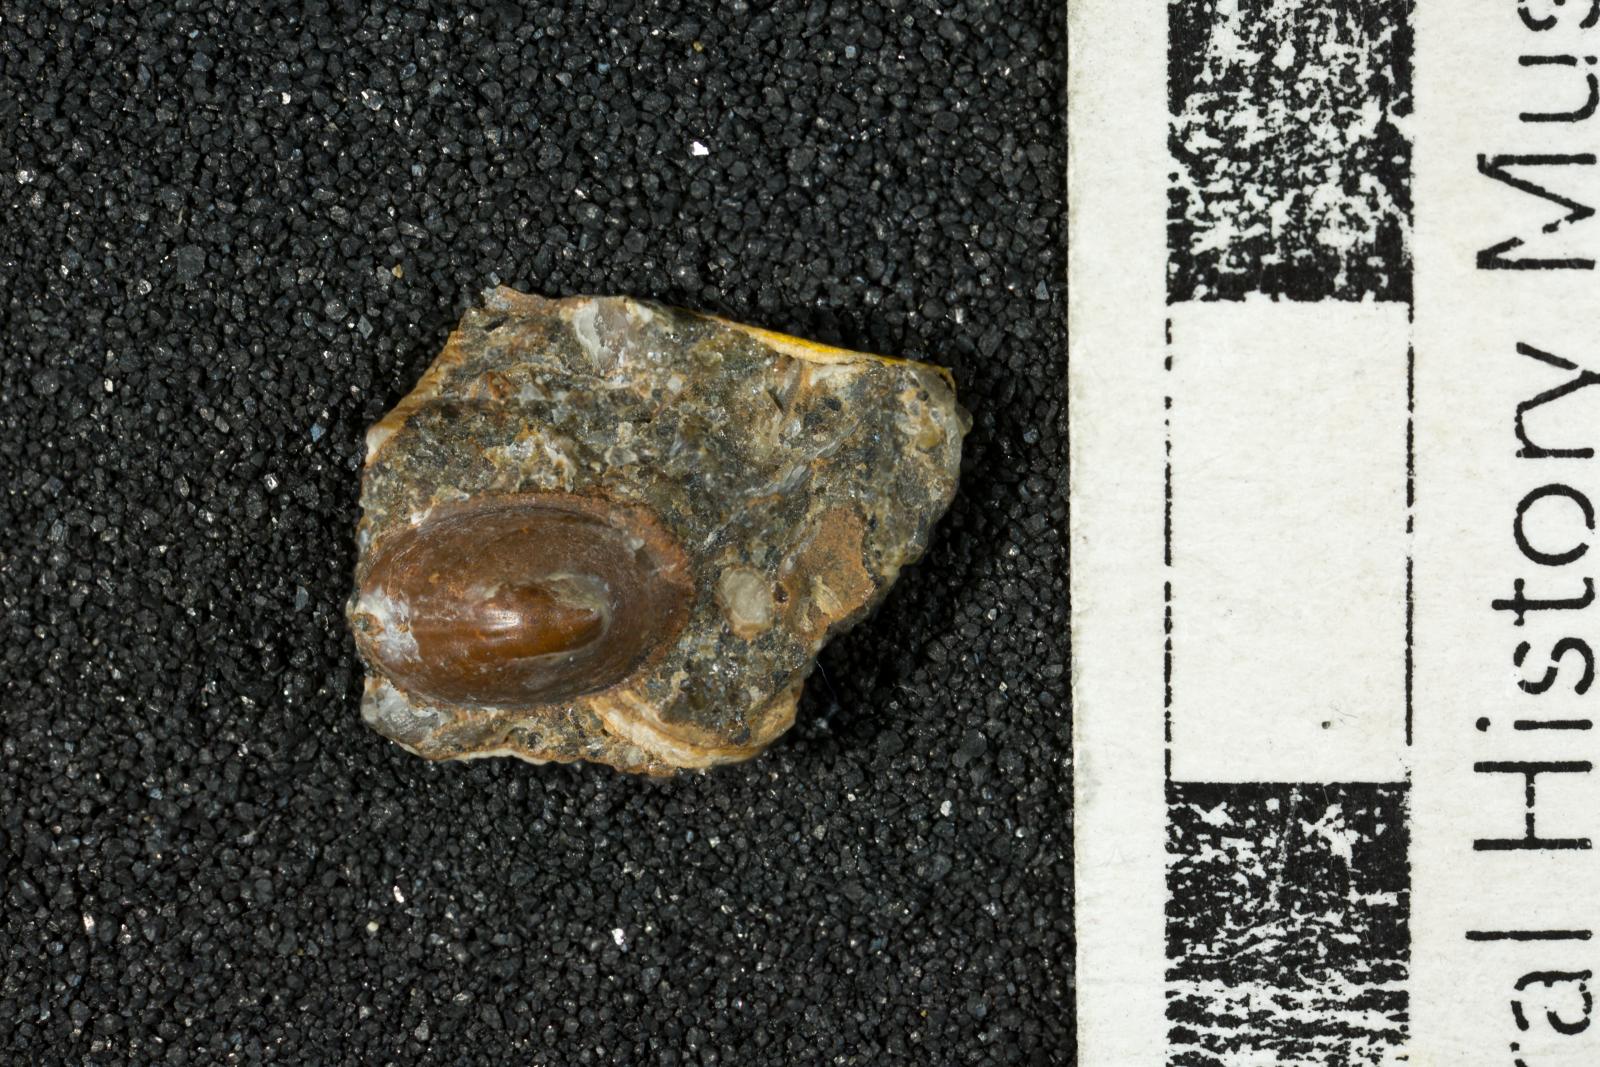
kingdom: Animalia
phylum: Mollusca
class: Gastropoda
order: Lepetellida
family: Fissurellidae
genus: Emarginula
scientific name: Emarginula
